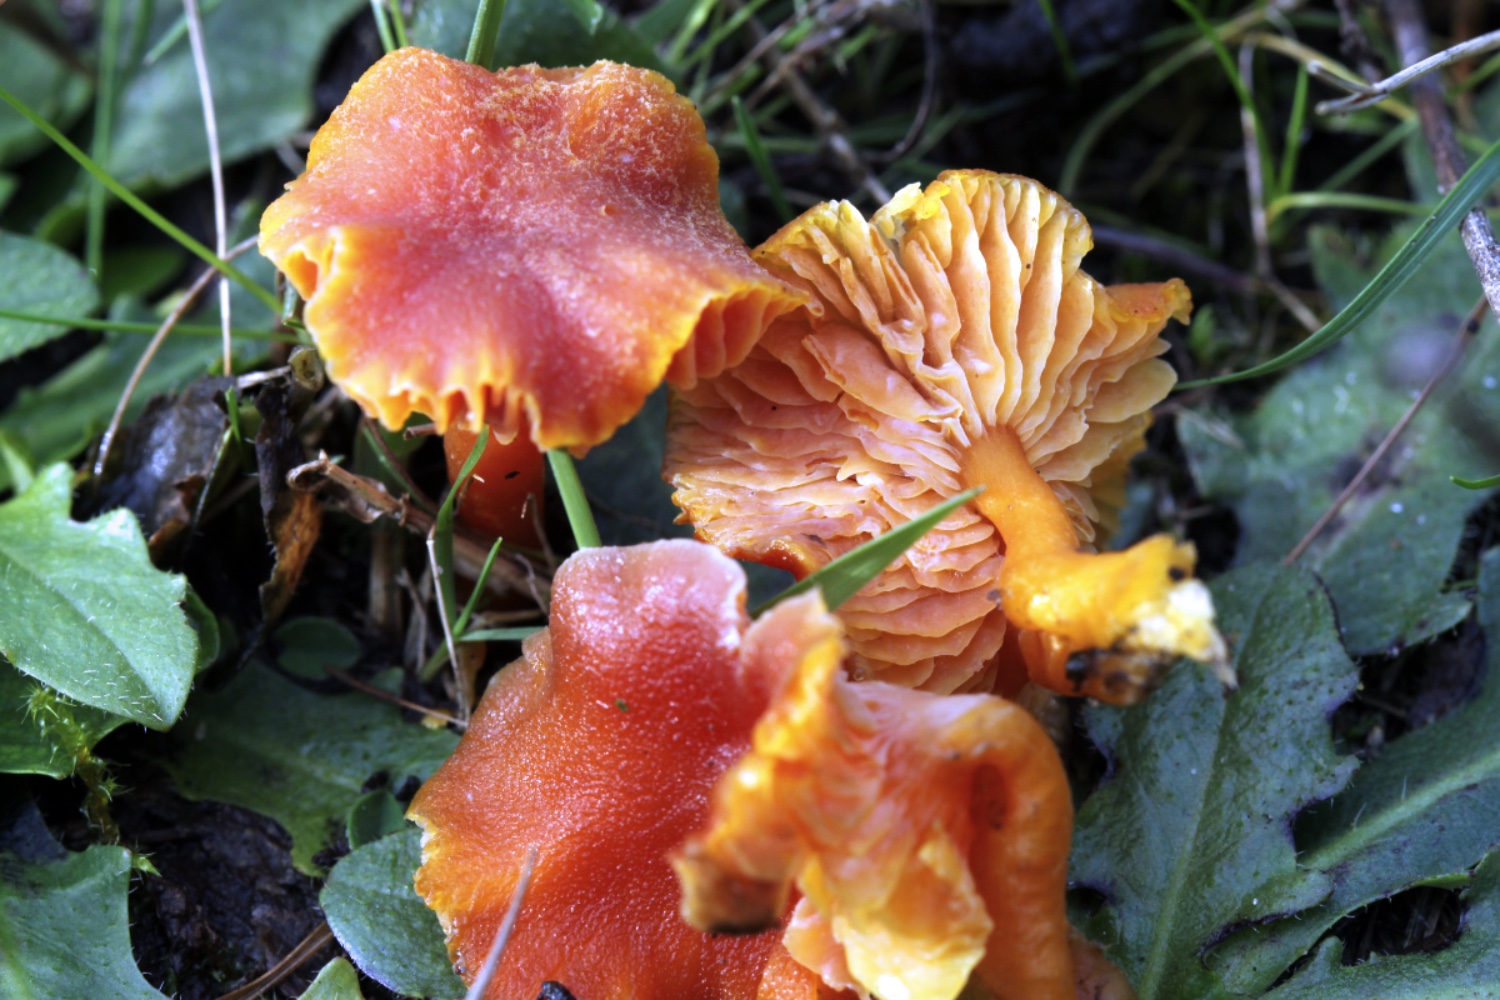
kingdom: Fungi
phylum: Basidiomycota
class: Agaricomycetes
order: Agaricales
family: Hygrophoraceae
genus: Hygrocybe
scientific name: Hygrocybe miniata
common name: mønje-vokshat
